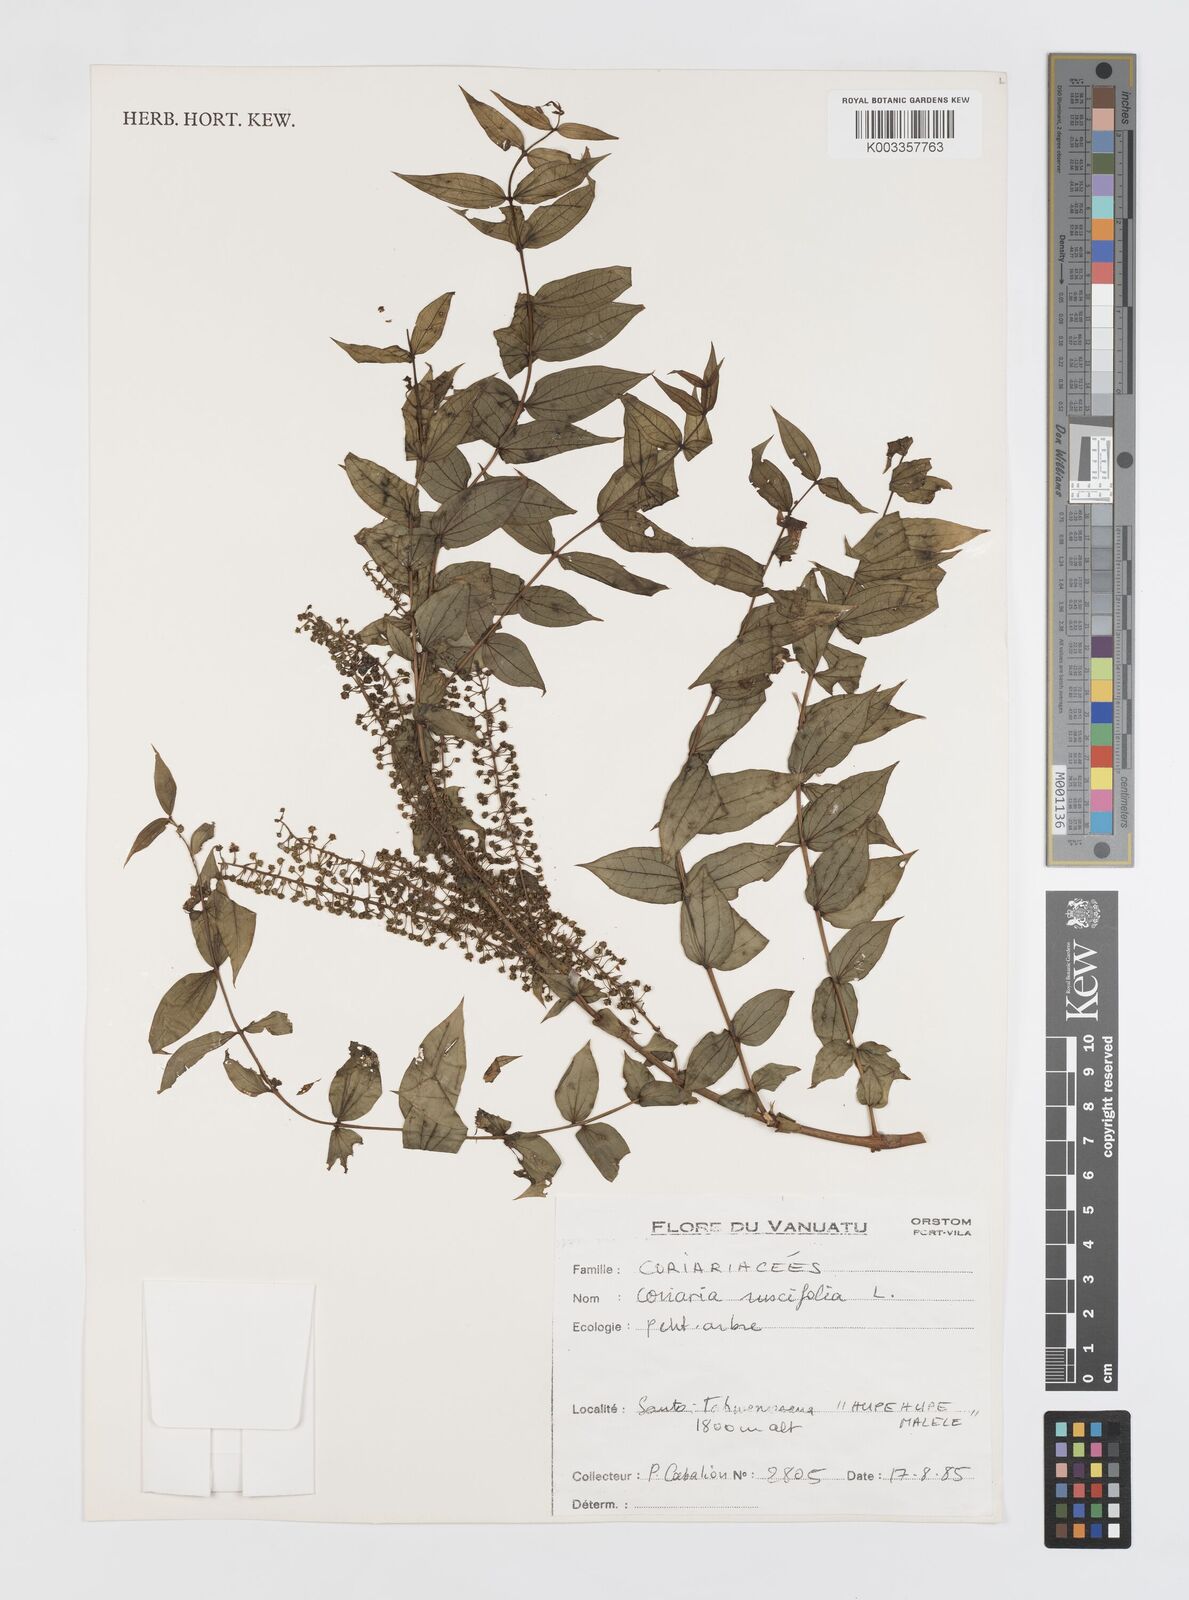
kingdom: Plantae
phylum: Tracheophyta
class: Magnoliopsida
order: Cucurbitales
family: Coriariaceae
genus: Coriaria
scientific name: Coriaria ruscifolia
